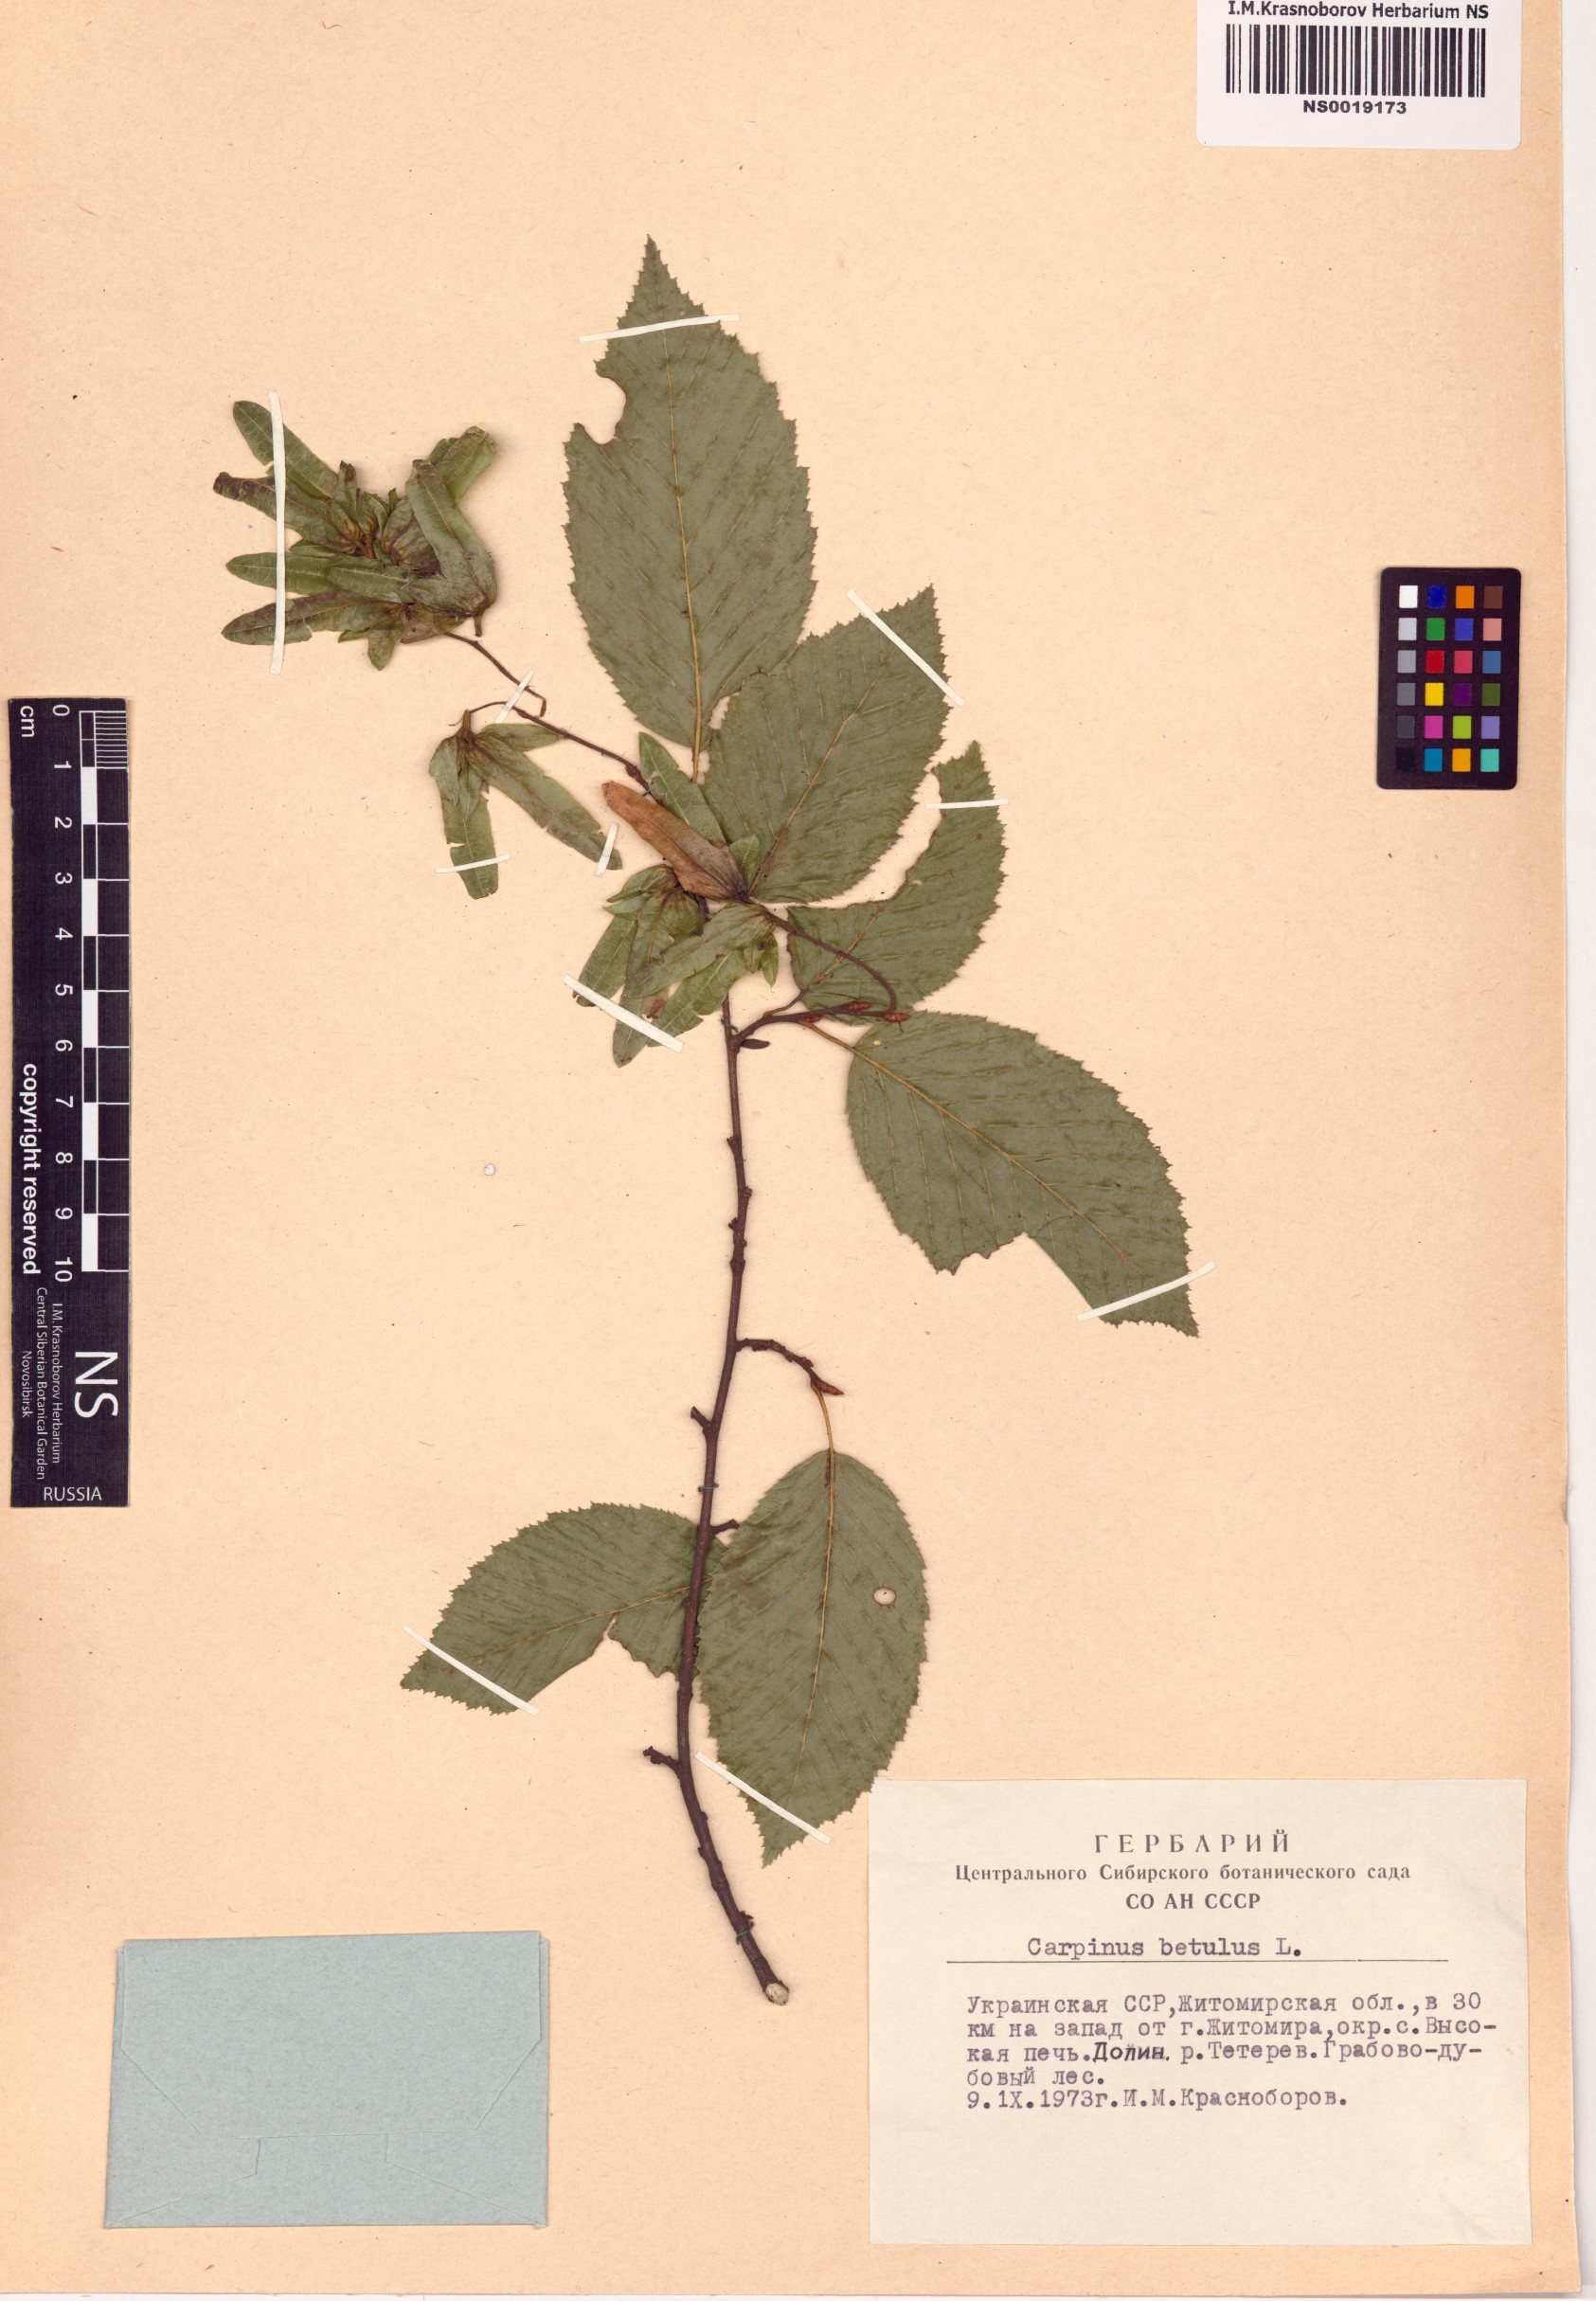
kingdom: Plantae
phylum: Tracheophyta
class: Magnoliopsida
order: Fagales
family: Betulaceae
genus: Carpinus
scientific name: Carpinus betulus
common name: Hornbeam
